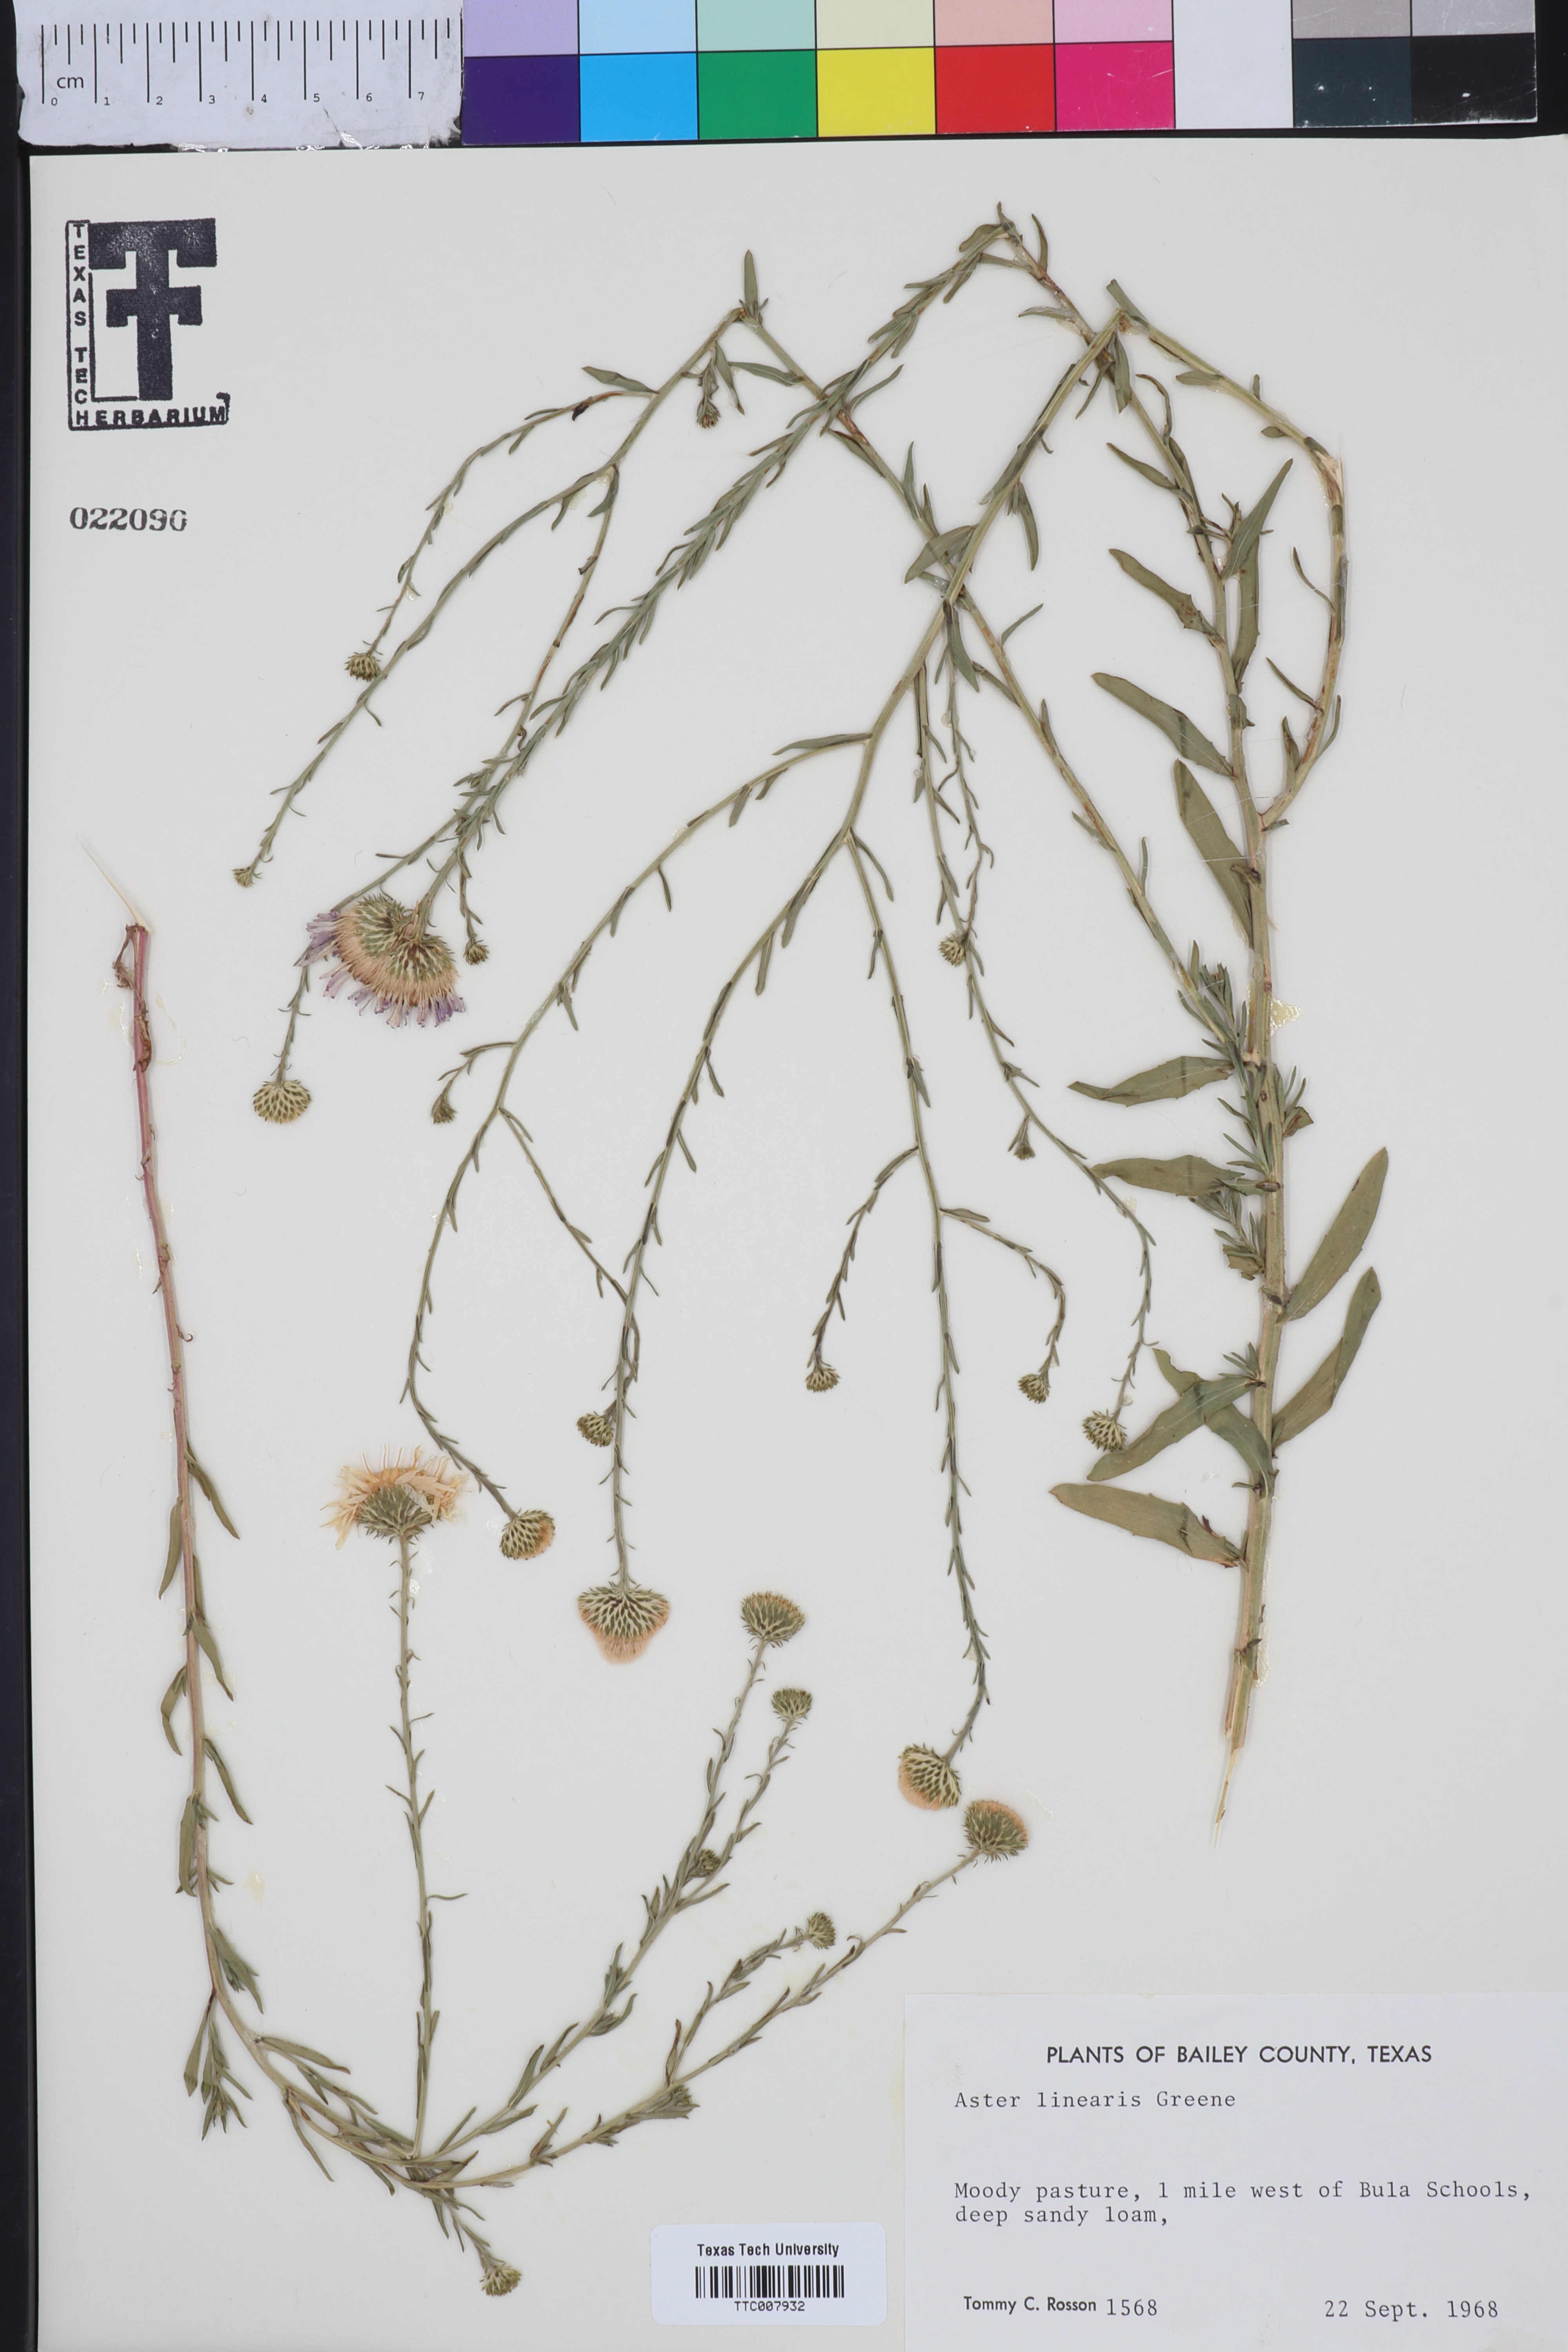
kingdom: Plantae
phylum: Tracheophyta
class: Magnoliopsida
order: Asterales
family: Asteraceae
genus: Dieteria
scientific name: Dieteria canescens
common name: Hoary-aster
